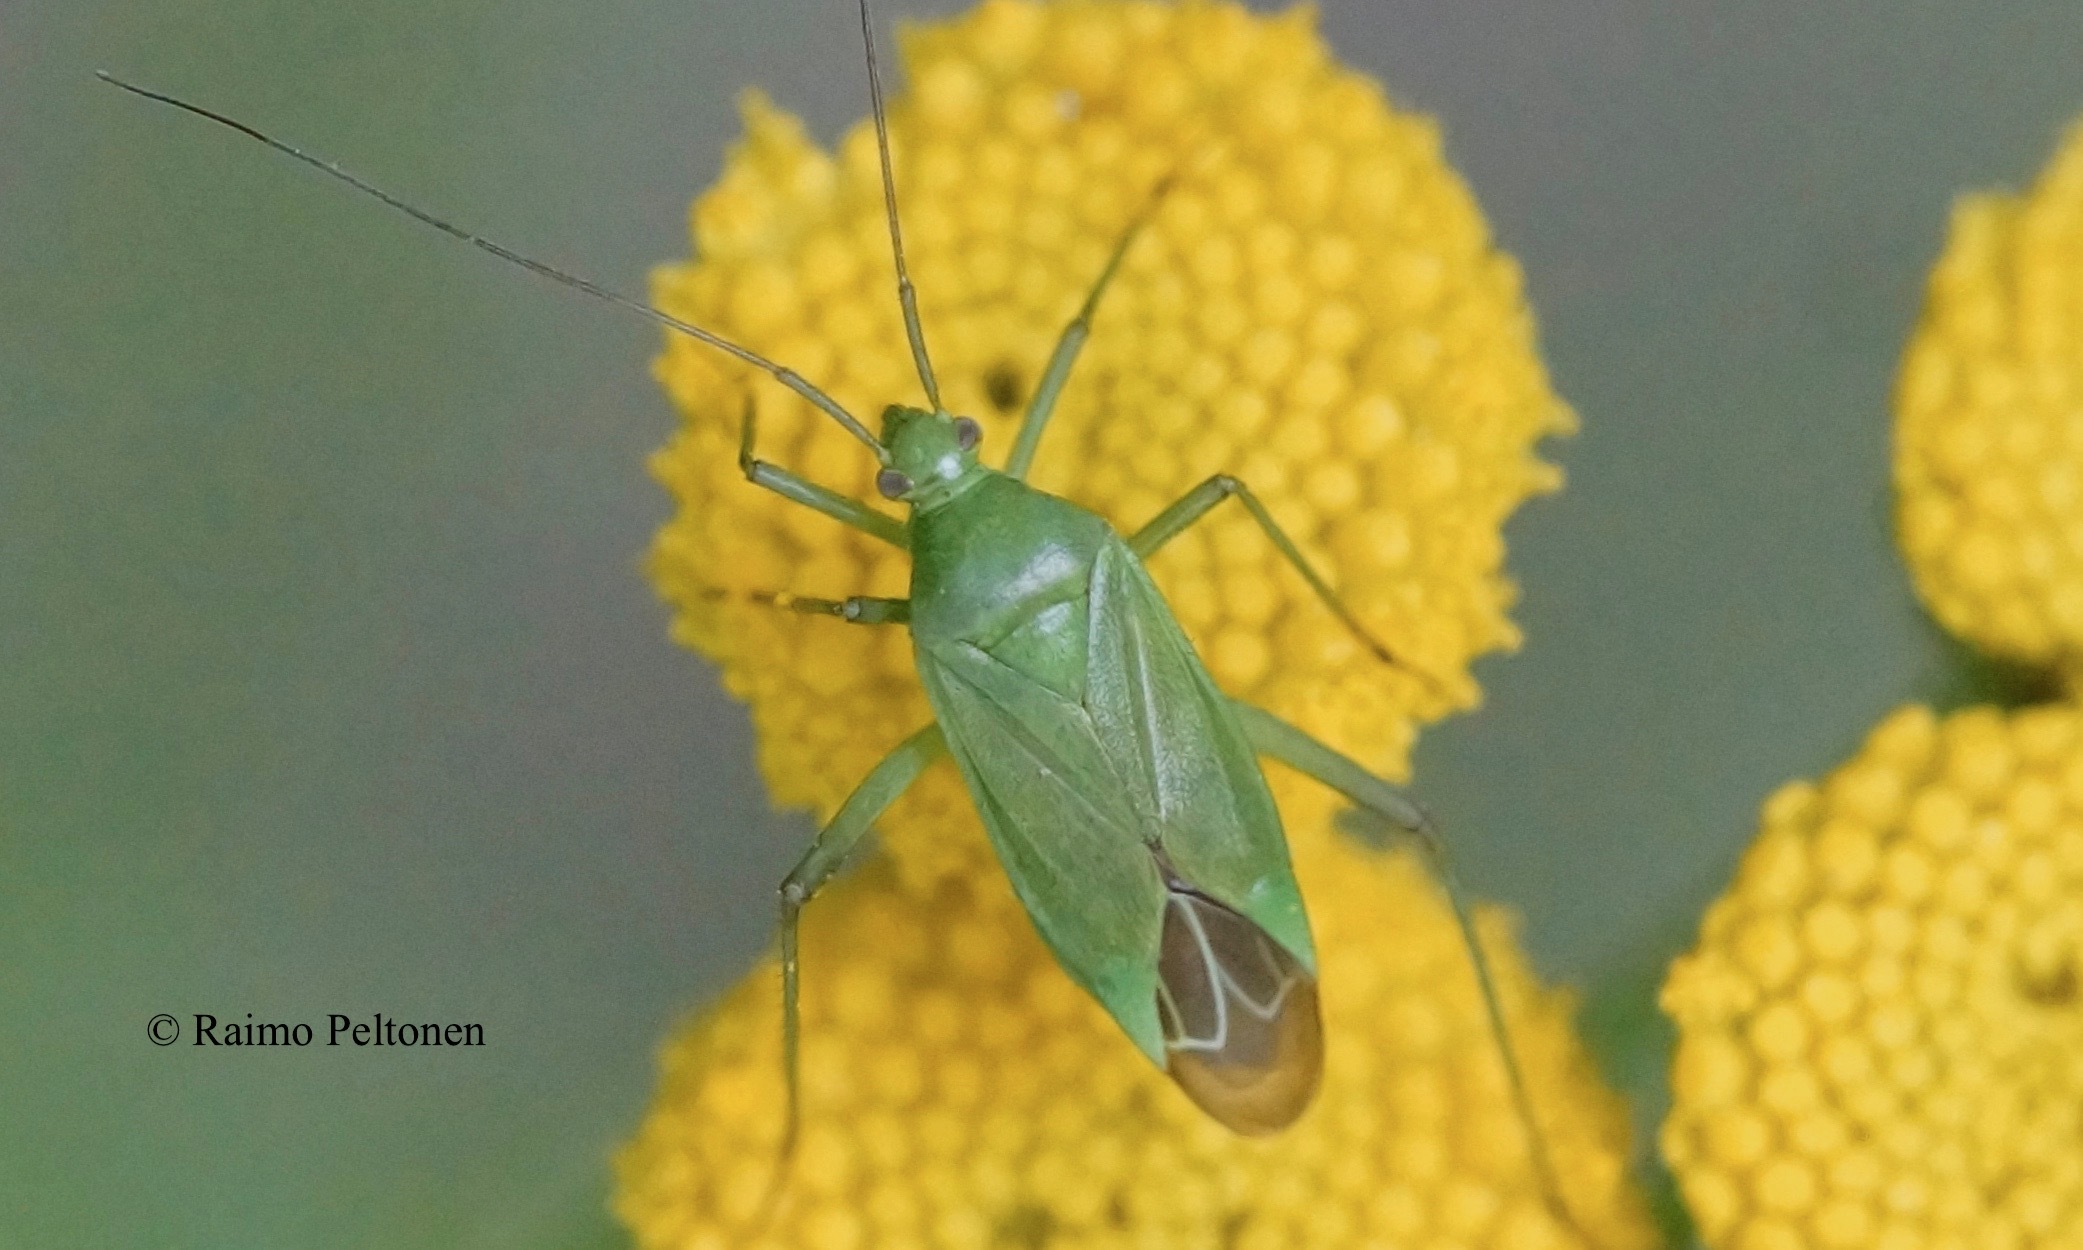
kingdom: Animalia
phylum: Arthropoda
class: Insecta
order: Hemiptera
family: Miridae
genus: Calocoris
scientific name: Calocoris affinis
